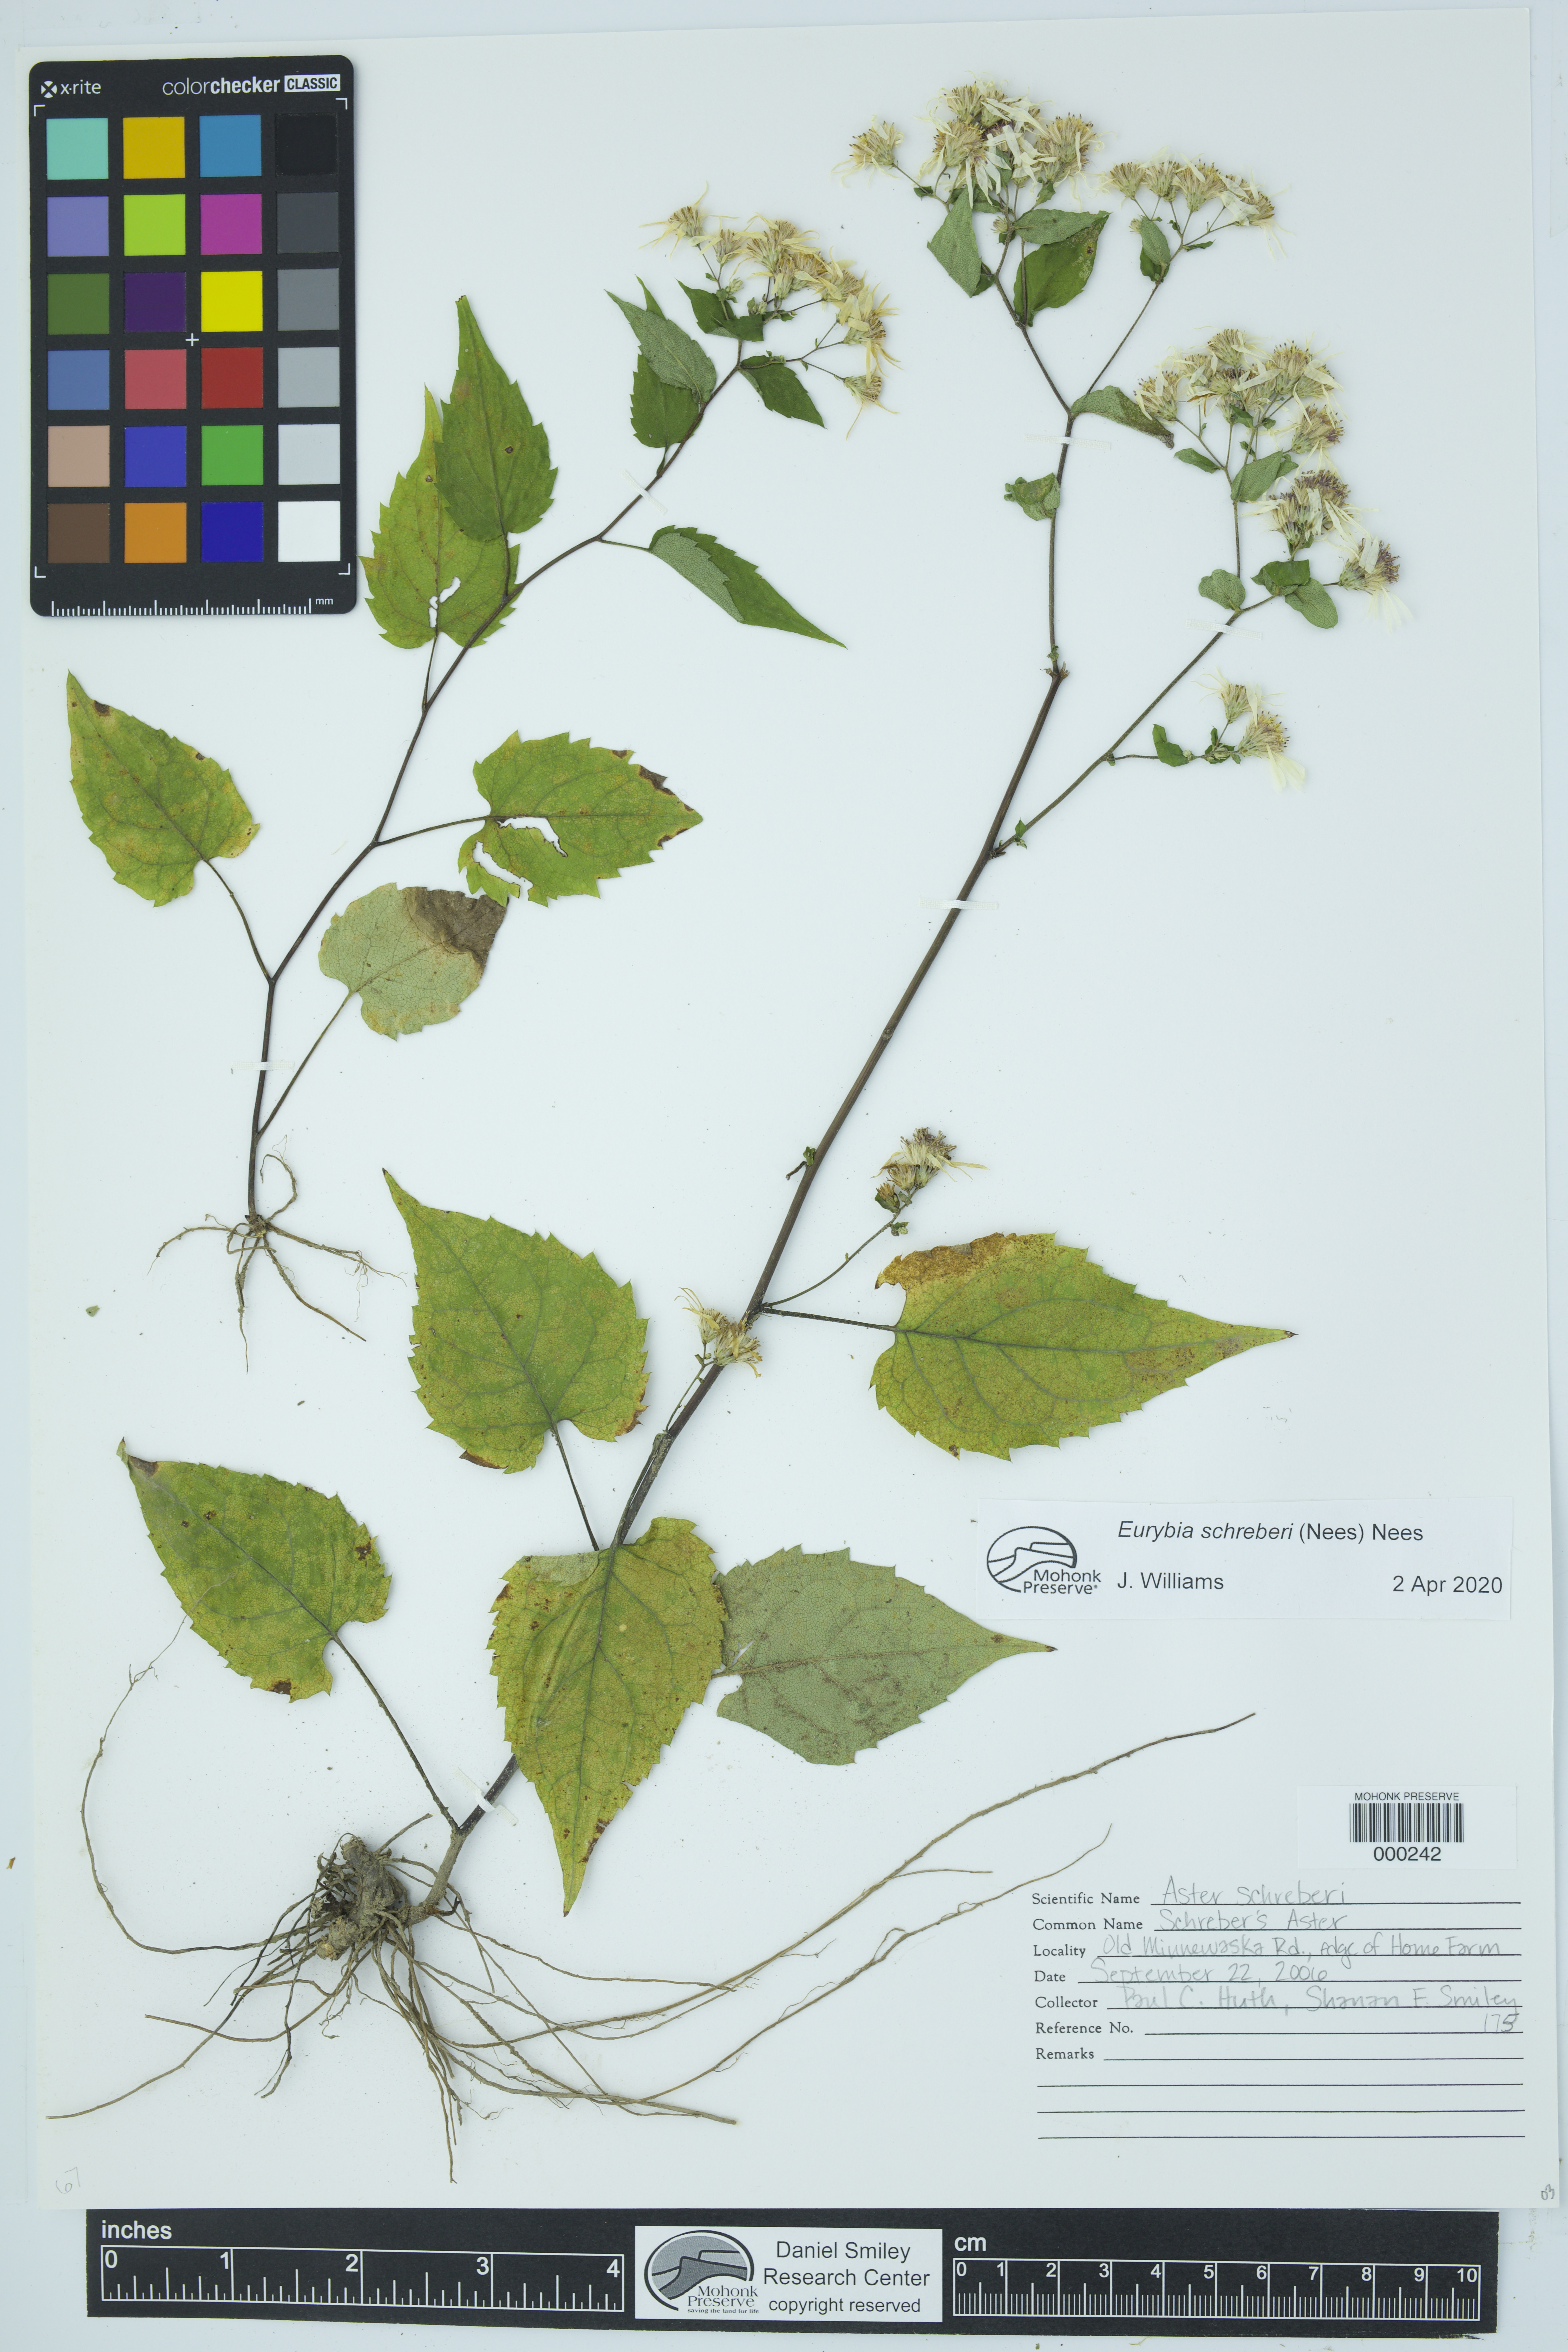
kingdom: Plantae
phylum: Tracheophyta
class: Magnoliopsida
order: Asterales
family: Asteraceae
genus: Eurybia
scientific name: Eurybia schreberi
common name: Schreber's aster
